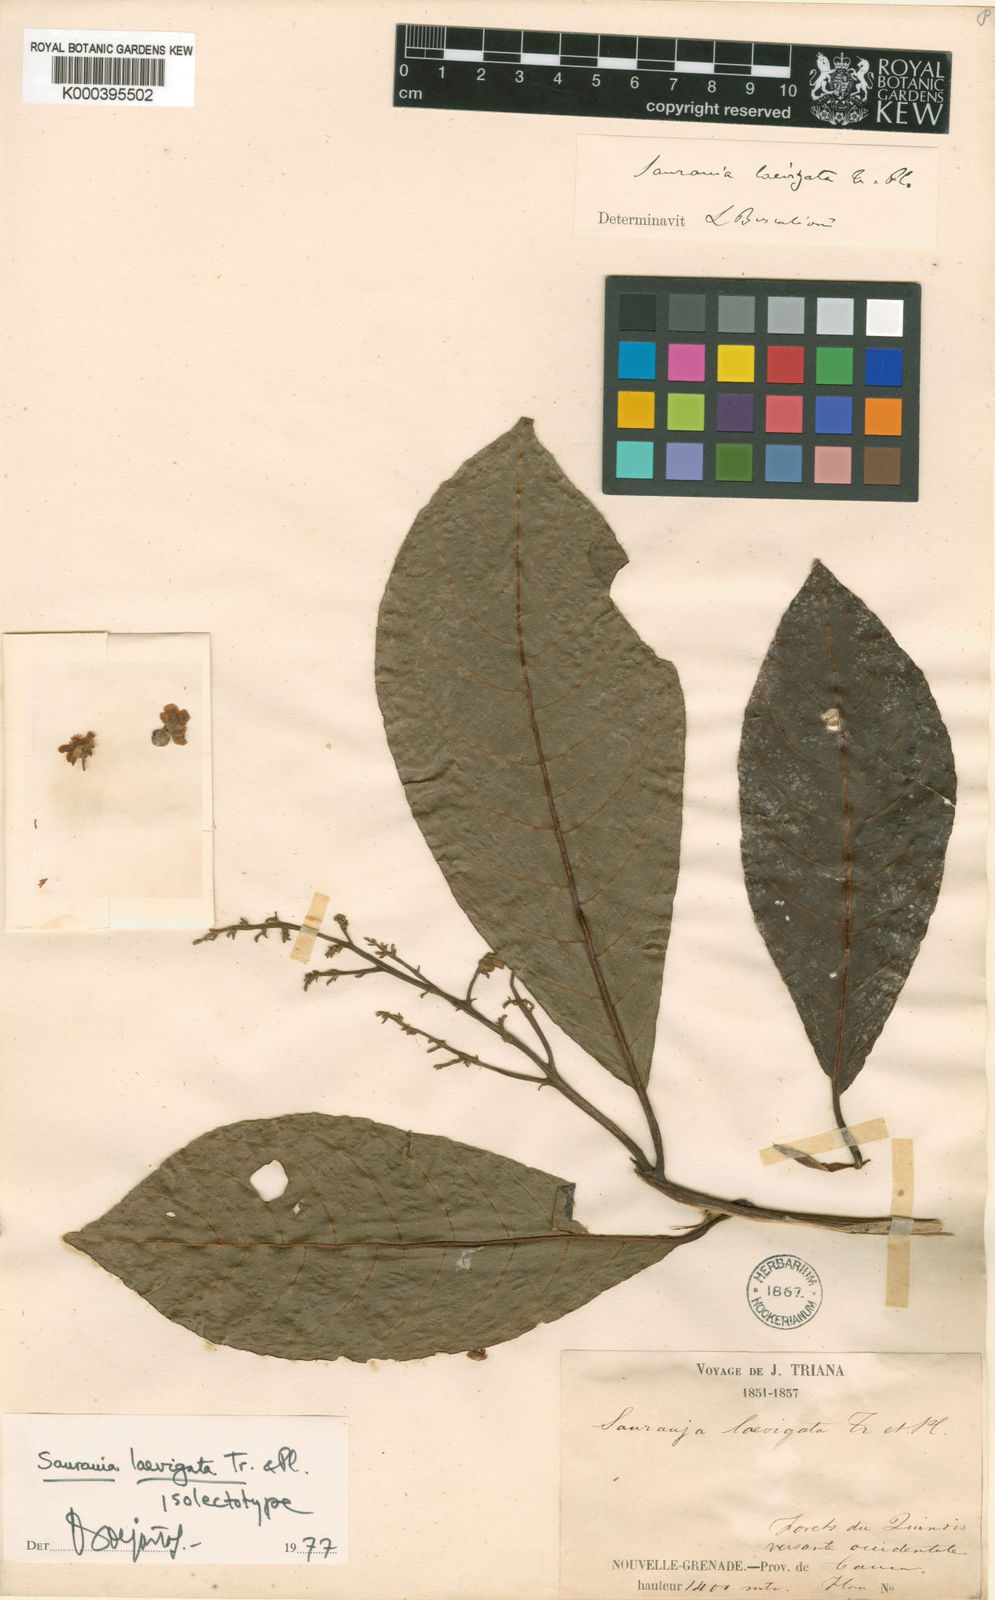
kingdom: Plantae
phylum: Tracheophyta
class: Magnoliopsida
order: Ericales
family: Actinidiaceae
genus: Saurauia
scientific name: Saurauia laevigata
